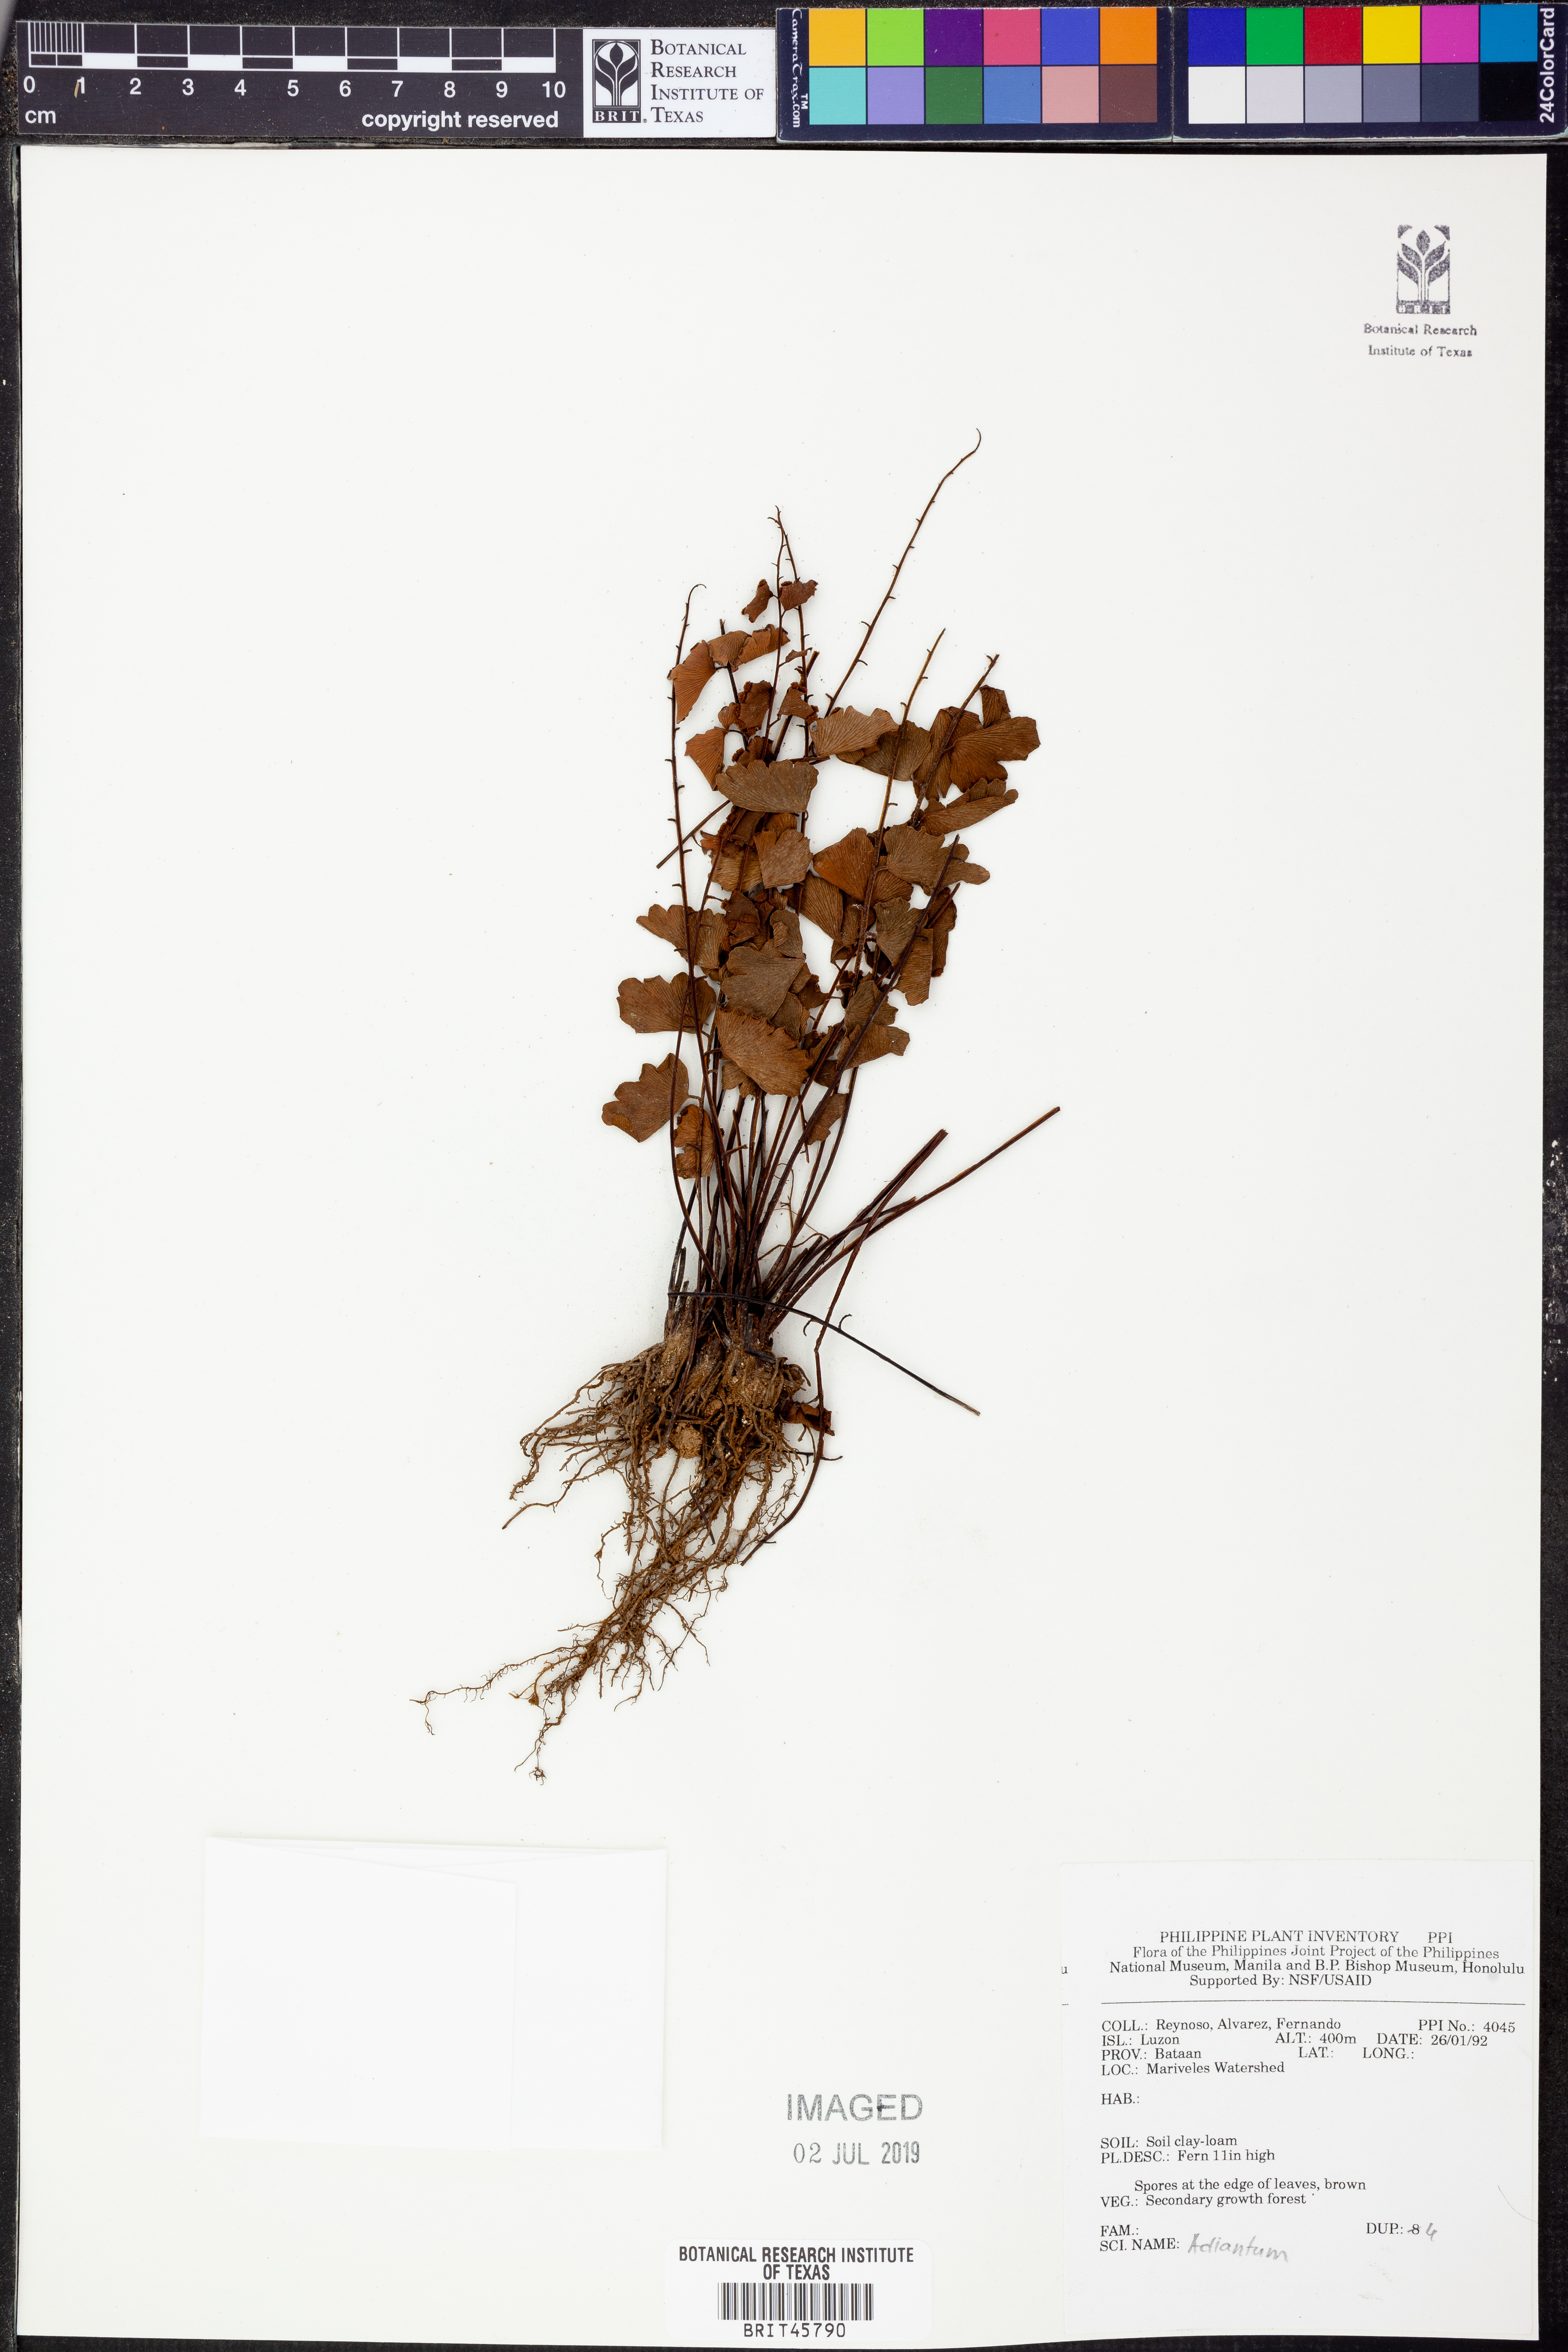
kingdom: Plantae
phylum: Tracheophyta
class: Polypodiopsida
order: Polypodiales
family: Pteridaceae
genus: Adiantum
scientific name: Adiantum
